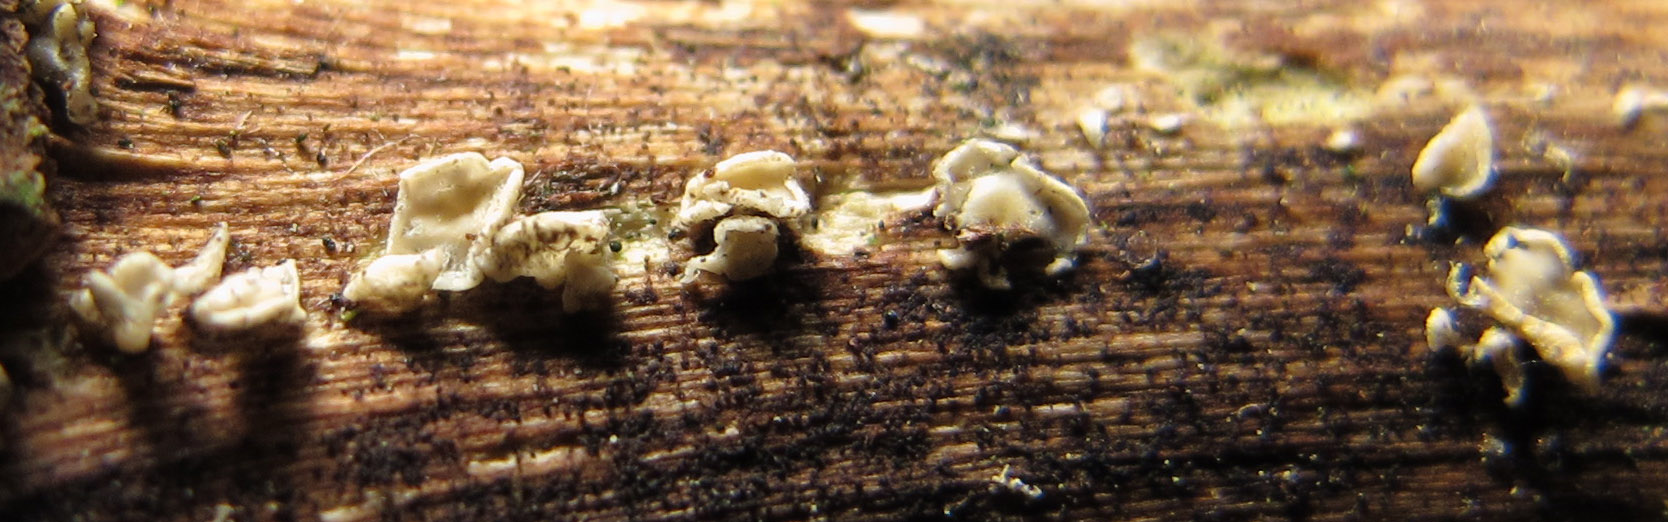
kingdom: Fungi
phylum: Ascomycota
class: Leotiomycetes
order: Helotiales
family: Pezizellaceae
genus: Calycina
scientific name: Calycina vulgaris
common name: pølsesporet gulskive
